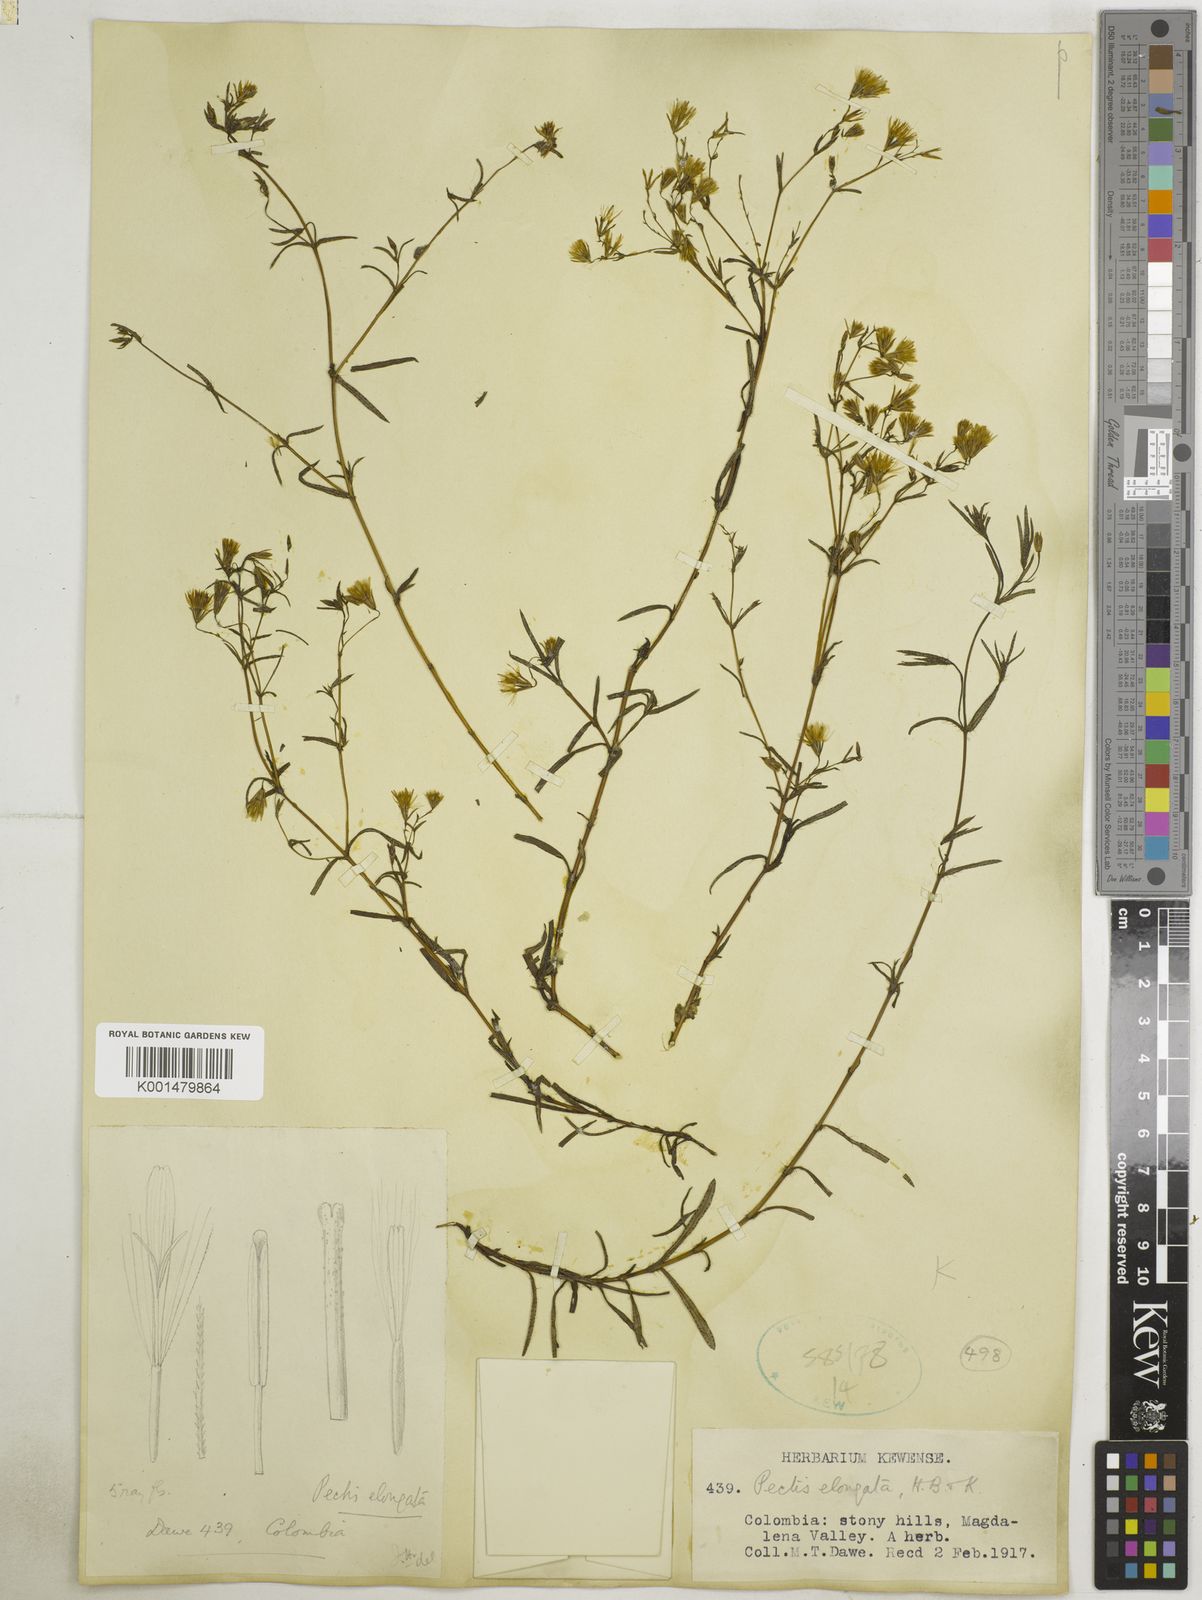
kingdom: Plantae
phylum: Tracheophyta
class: Magnoliopsida
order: Asterales
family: Asteraceae
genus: Pectis
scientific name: Pectis elongata
